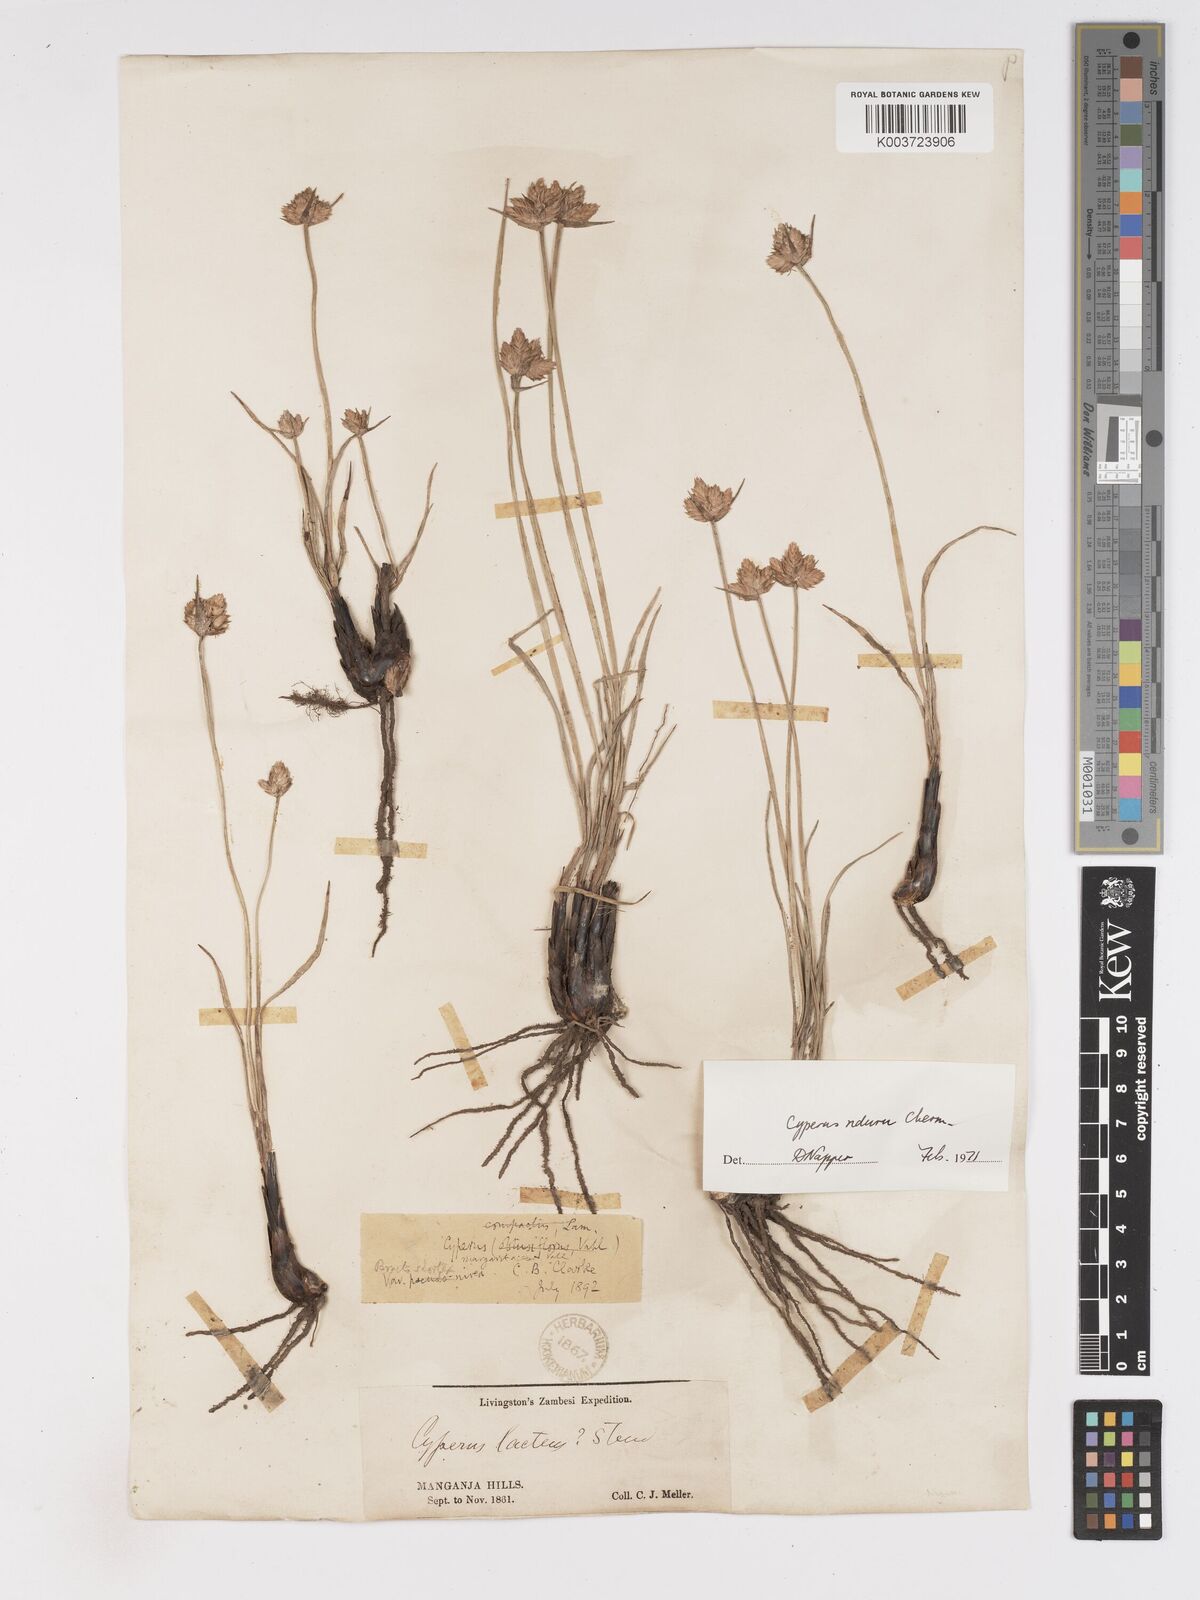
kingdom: Plantae
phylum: Tracheophyta
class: Liliopsida
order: Poales
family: Cyperaceae
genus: Cyperus
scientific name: Cyperus nduru
